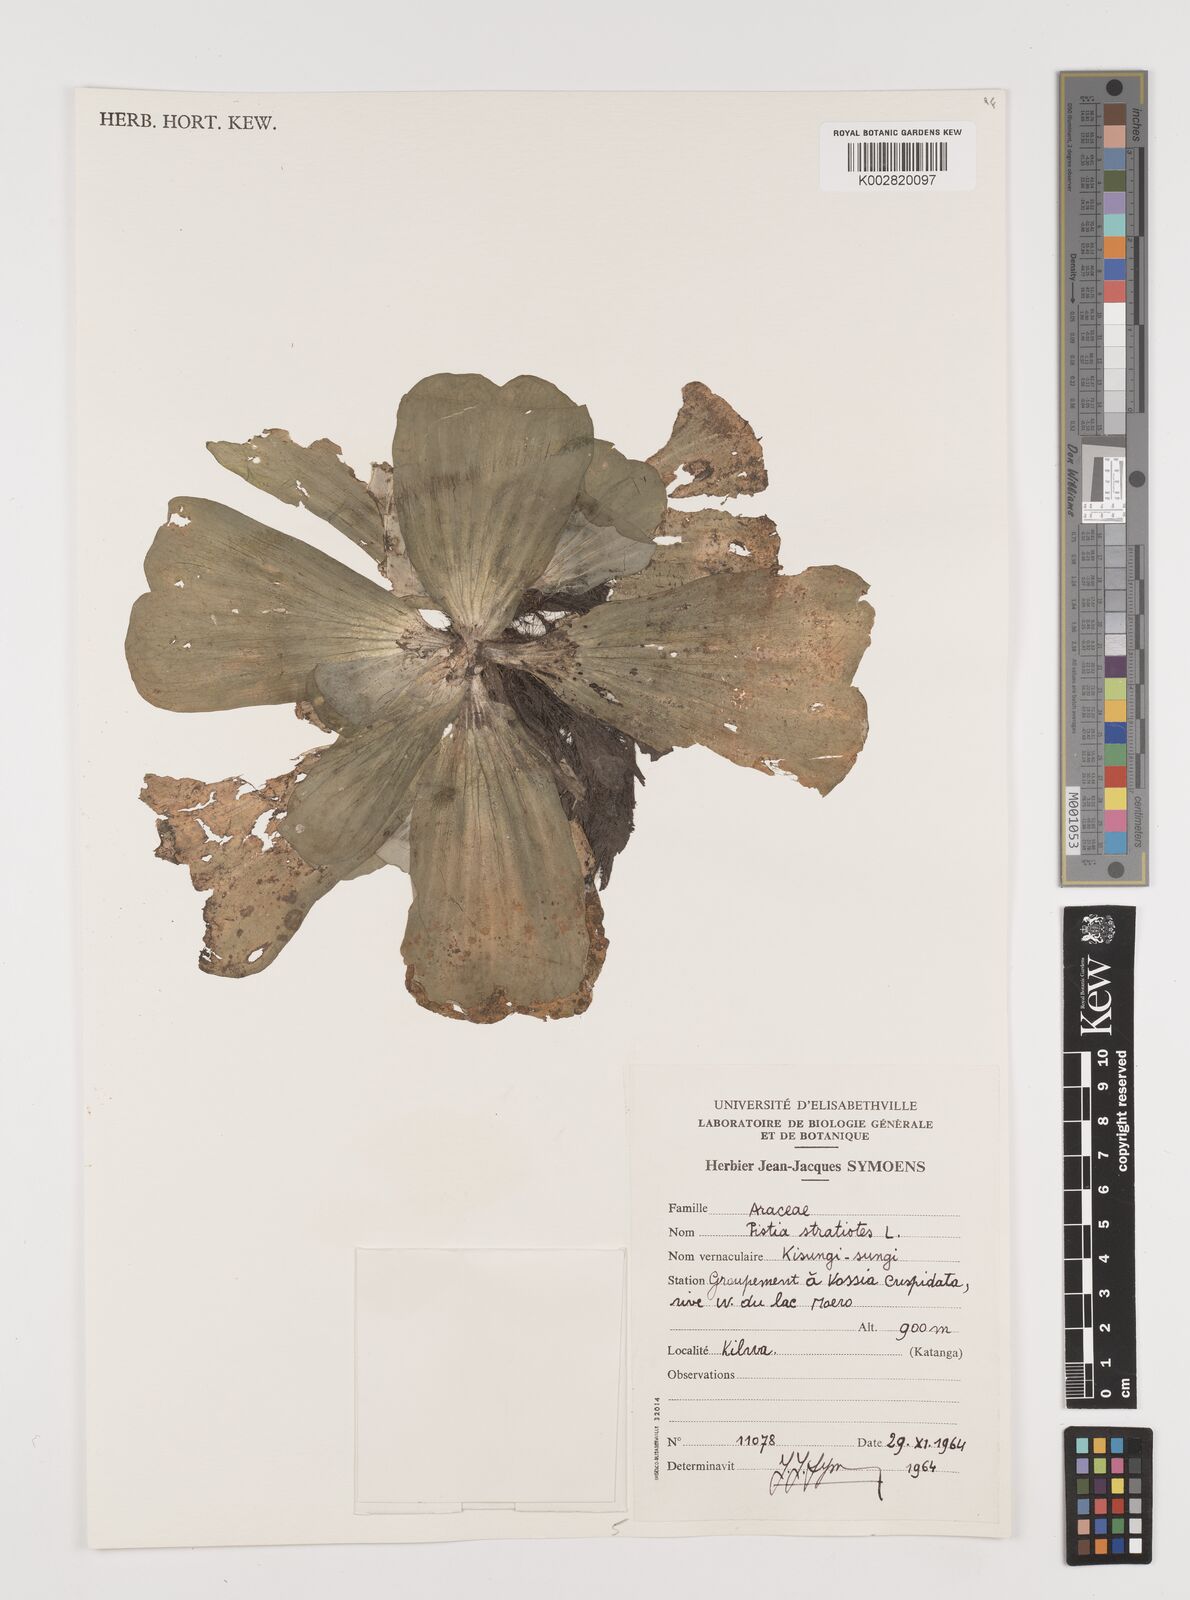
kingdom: Plantae
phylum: Tracheophyta
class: Liliopsida
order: Alismatales
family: Araceae
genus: Pistia
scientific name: Pistia stratiotes
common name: Water lettuce
